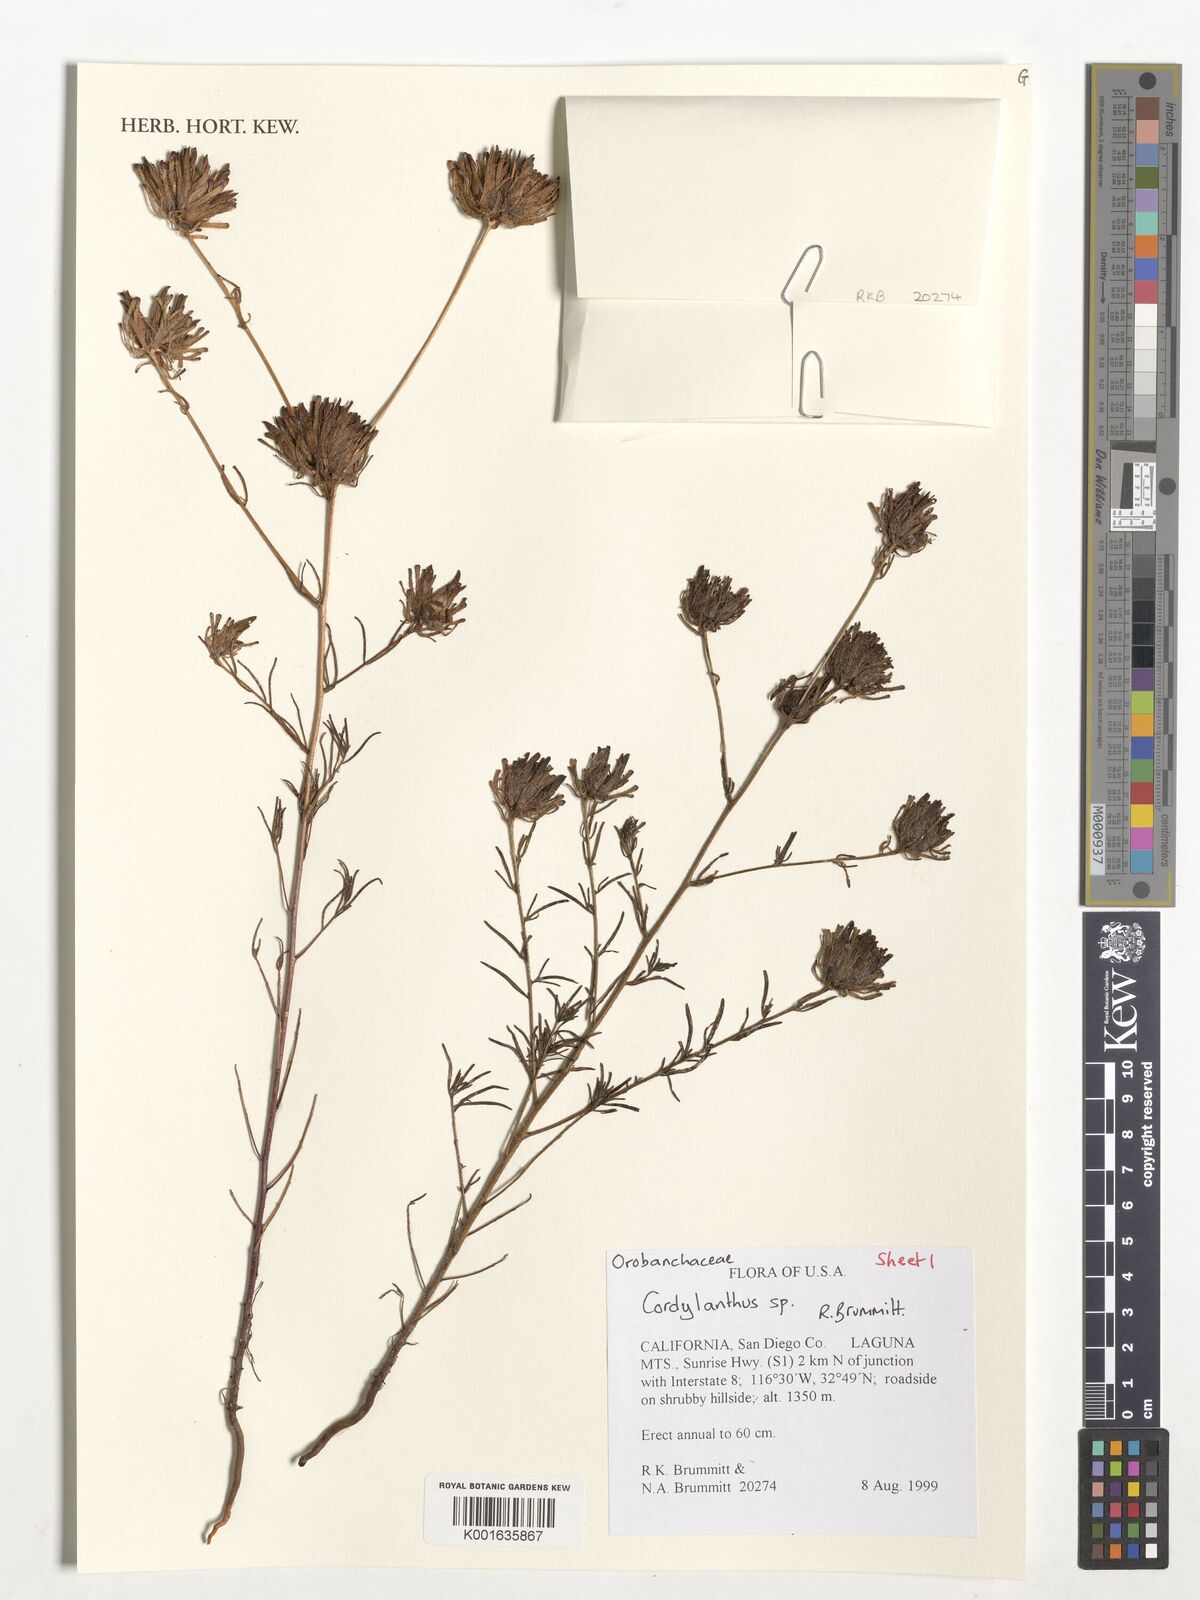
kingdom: Plantae
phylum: Tracheophyta
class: Magnoliopsida
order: Lamiales
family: Orobanchaceae
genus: Cordylanthus
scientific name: Cordylanthus
